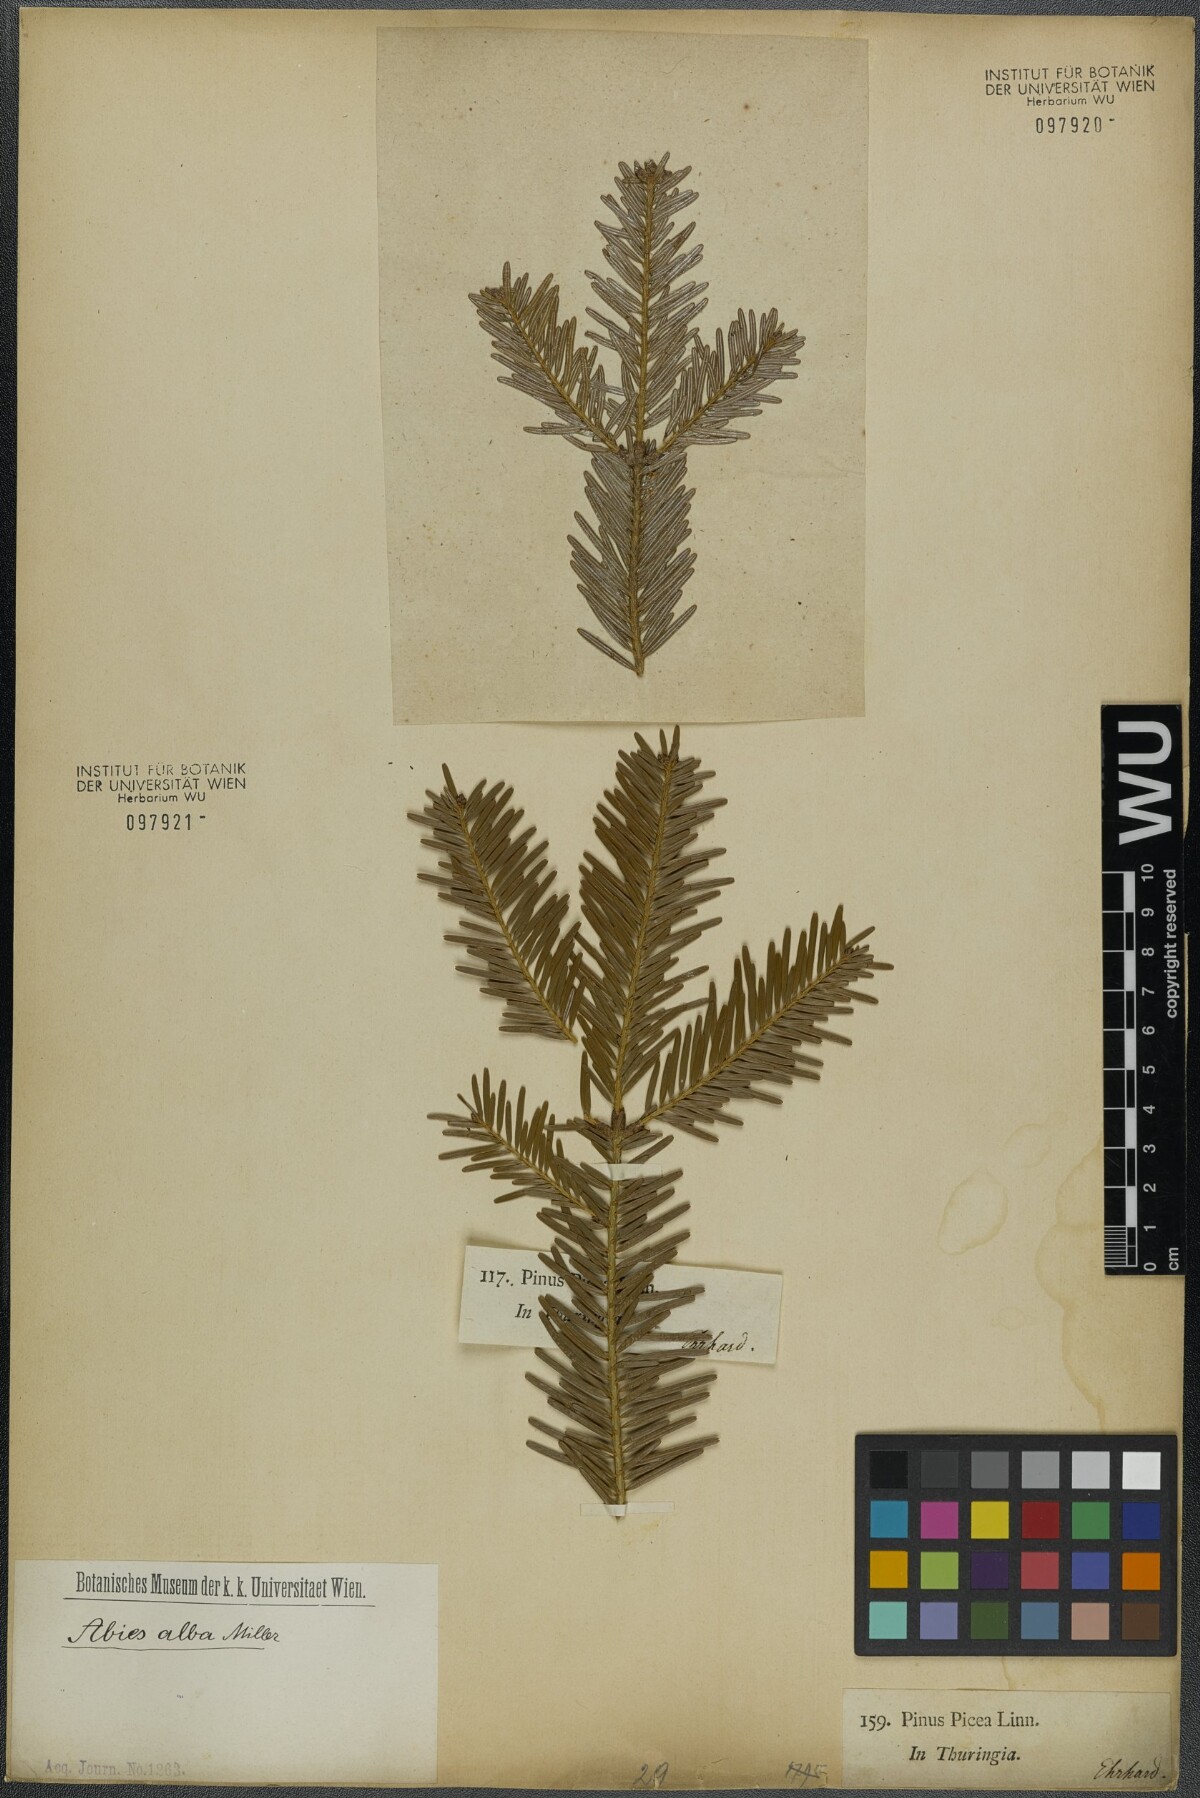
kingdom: Plantae
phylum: Tracheophyta
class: Pinopsida
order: Pinales
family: Pinaceae
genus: Abies
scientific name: Abies alba
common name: Silver fir
